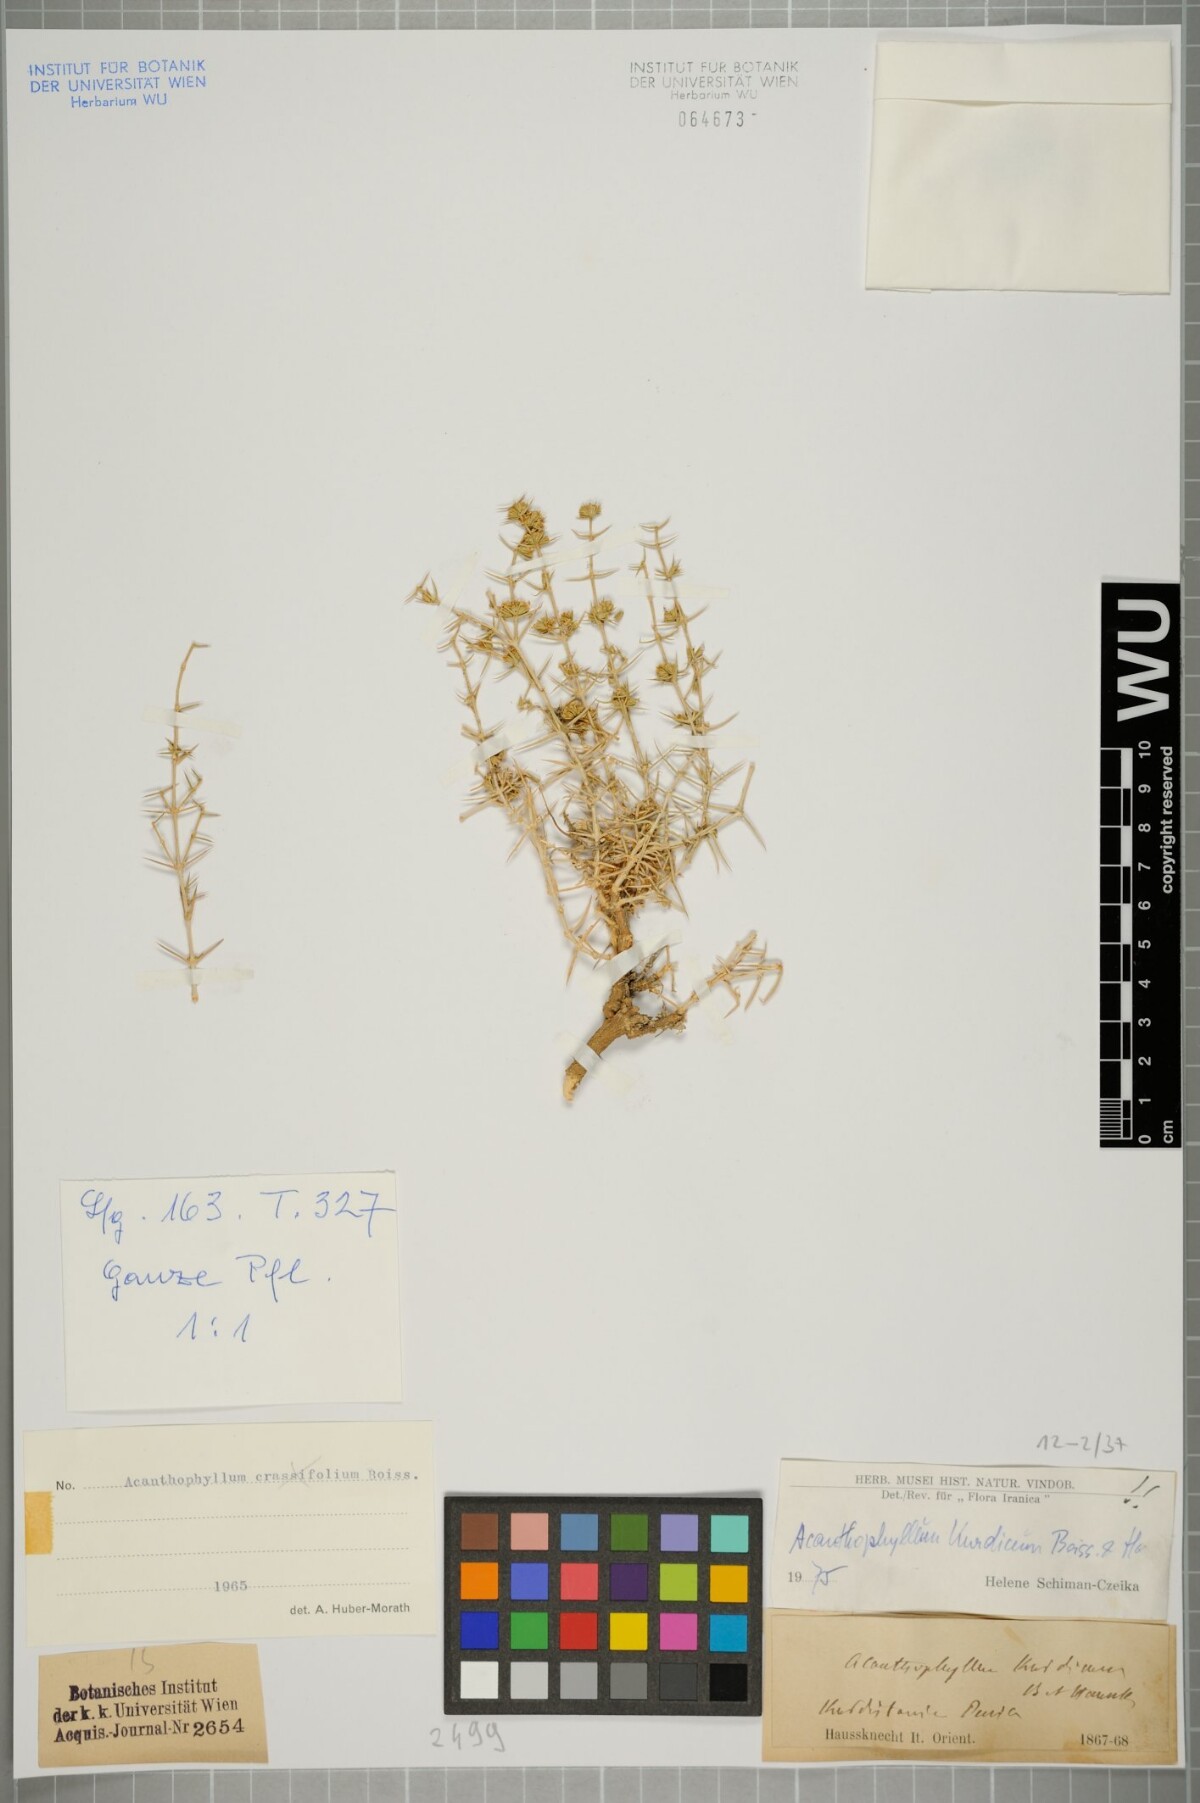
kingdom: Plantae
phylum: Tracheophyta
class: Magnoliopsida
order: Caryophyllales
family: Caryophyllaceae
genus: Acanthophyllum
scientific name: Acanthophyllum kurdicum
